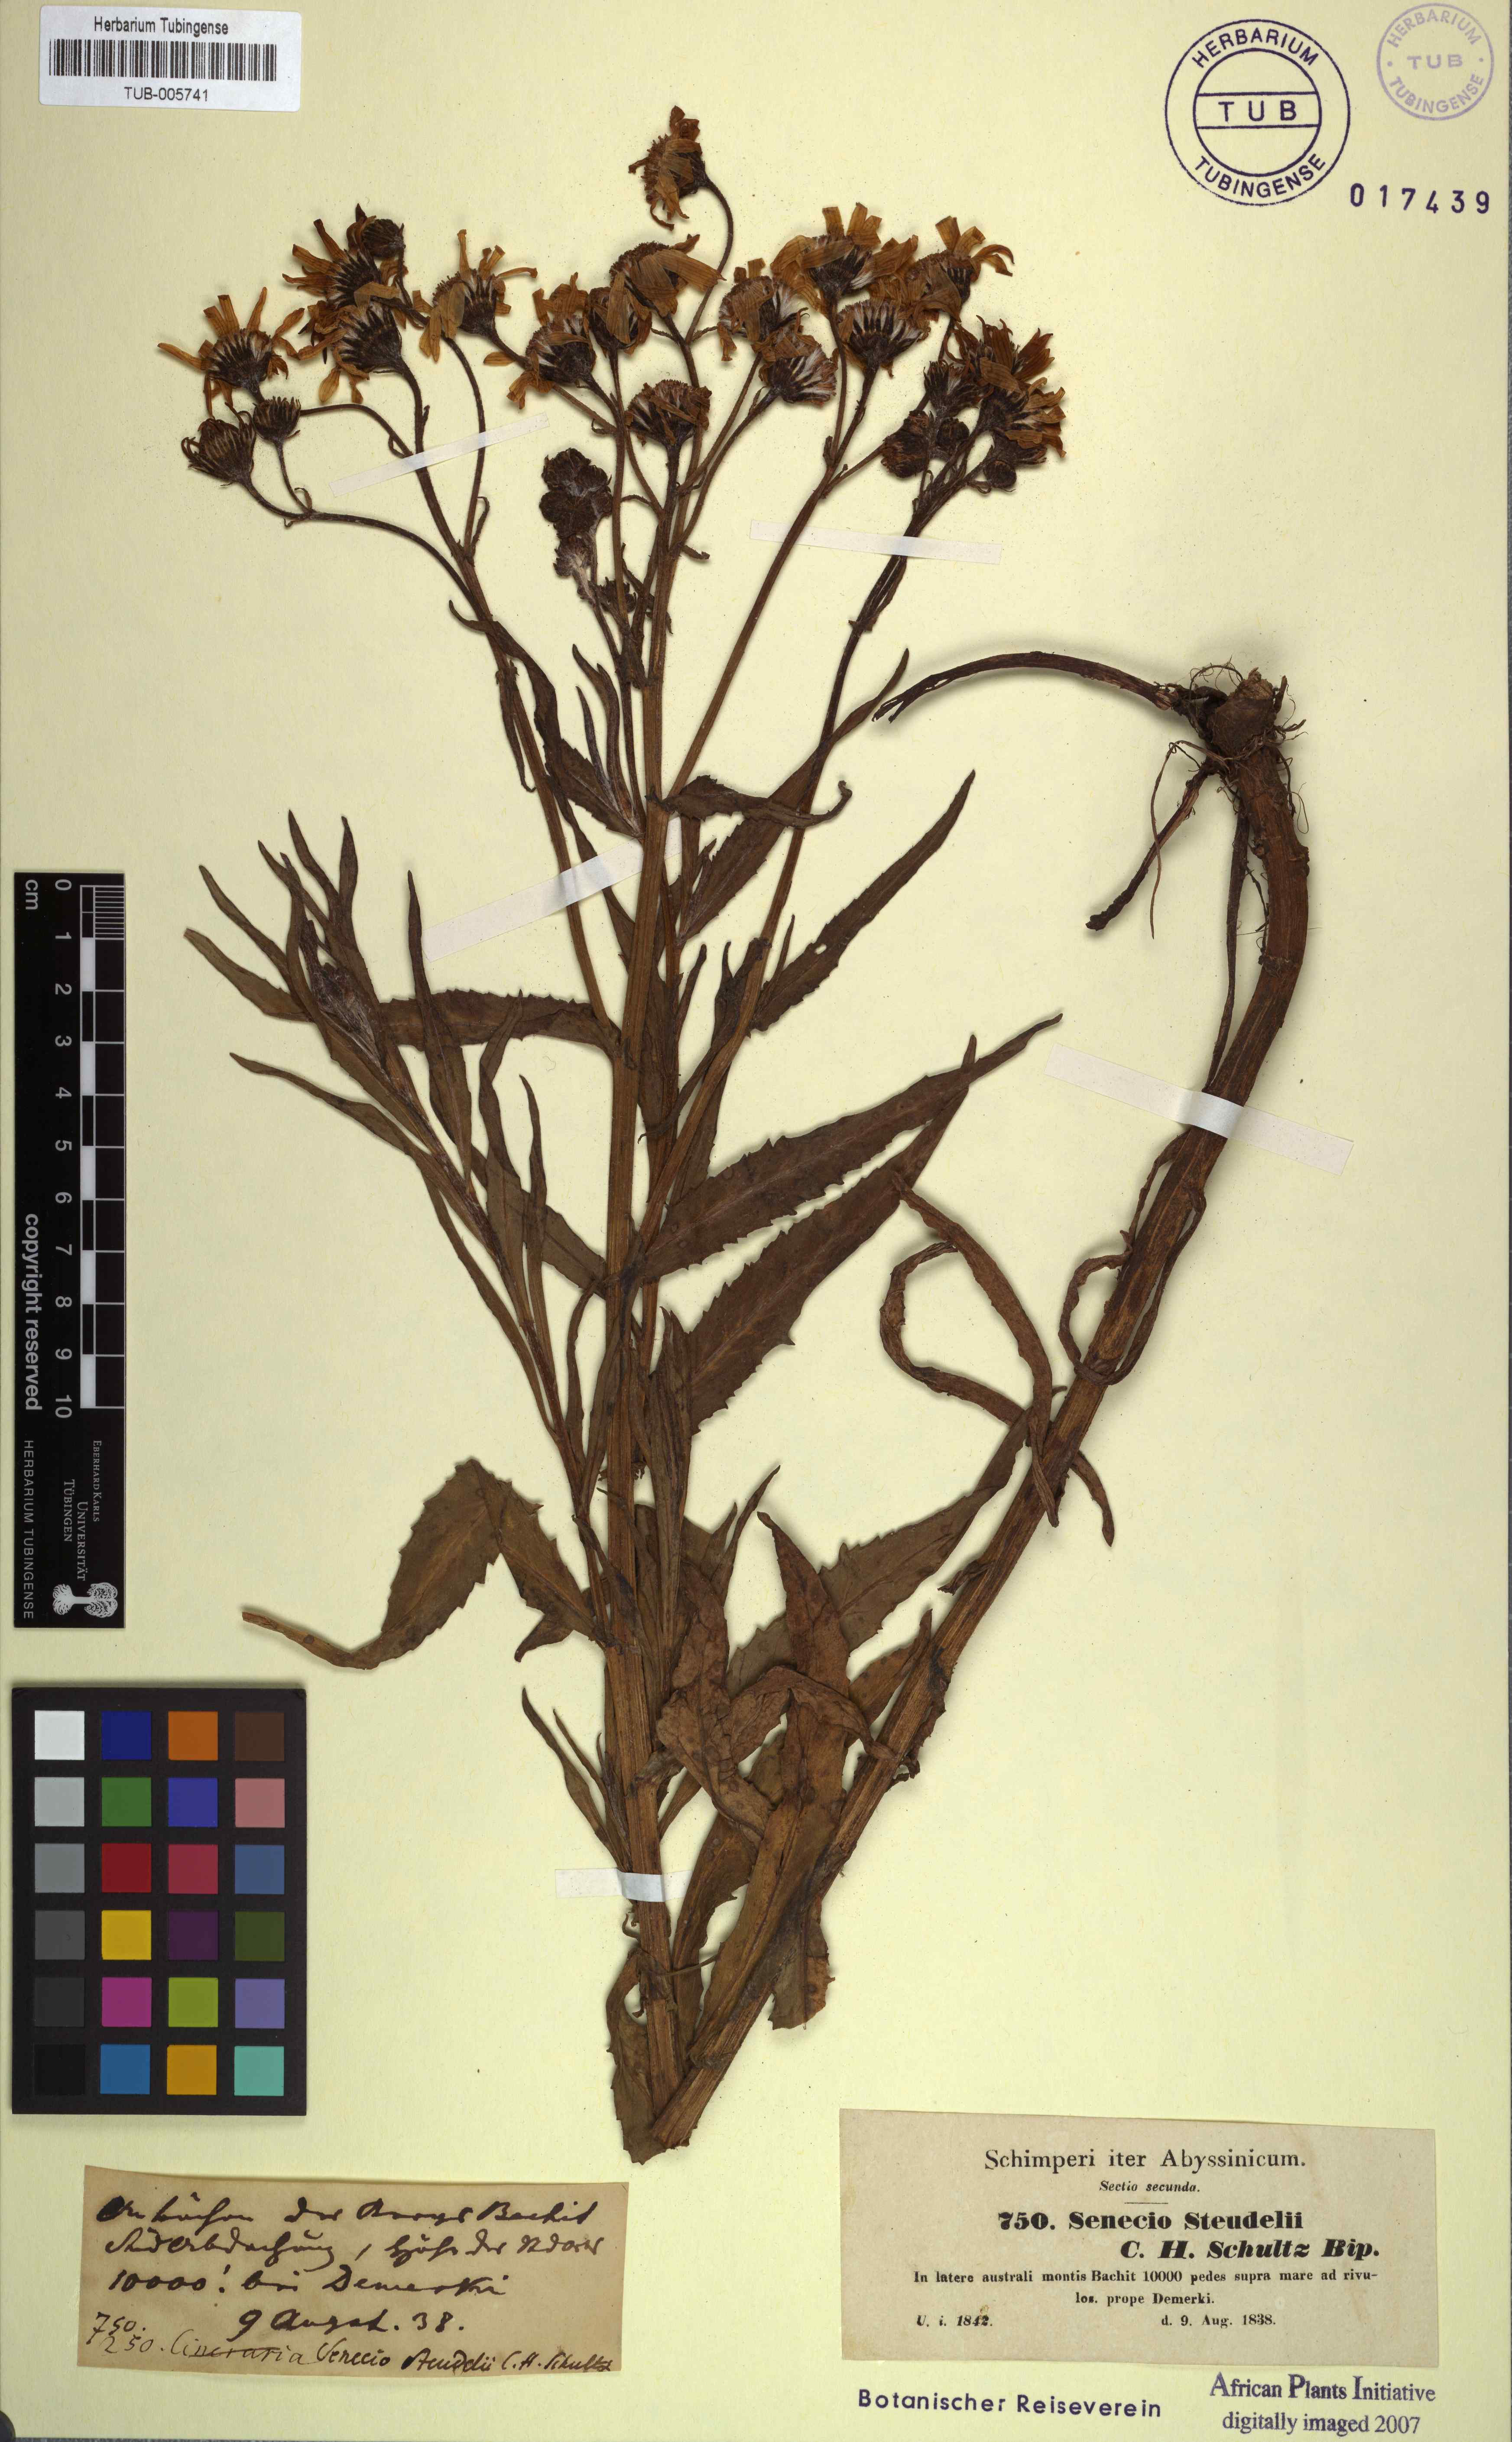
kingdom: Plantae
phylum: Tracheophyta
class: Magnoliopsida
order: Asterales
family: Asteraceae
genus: Senecio
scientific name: Senecio steudelii
